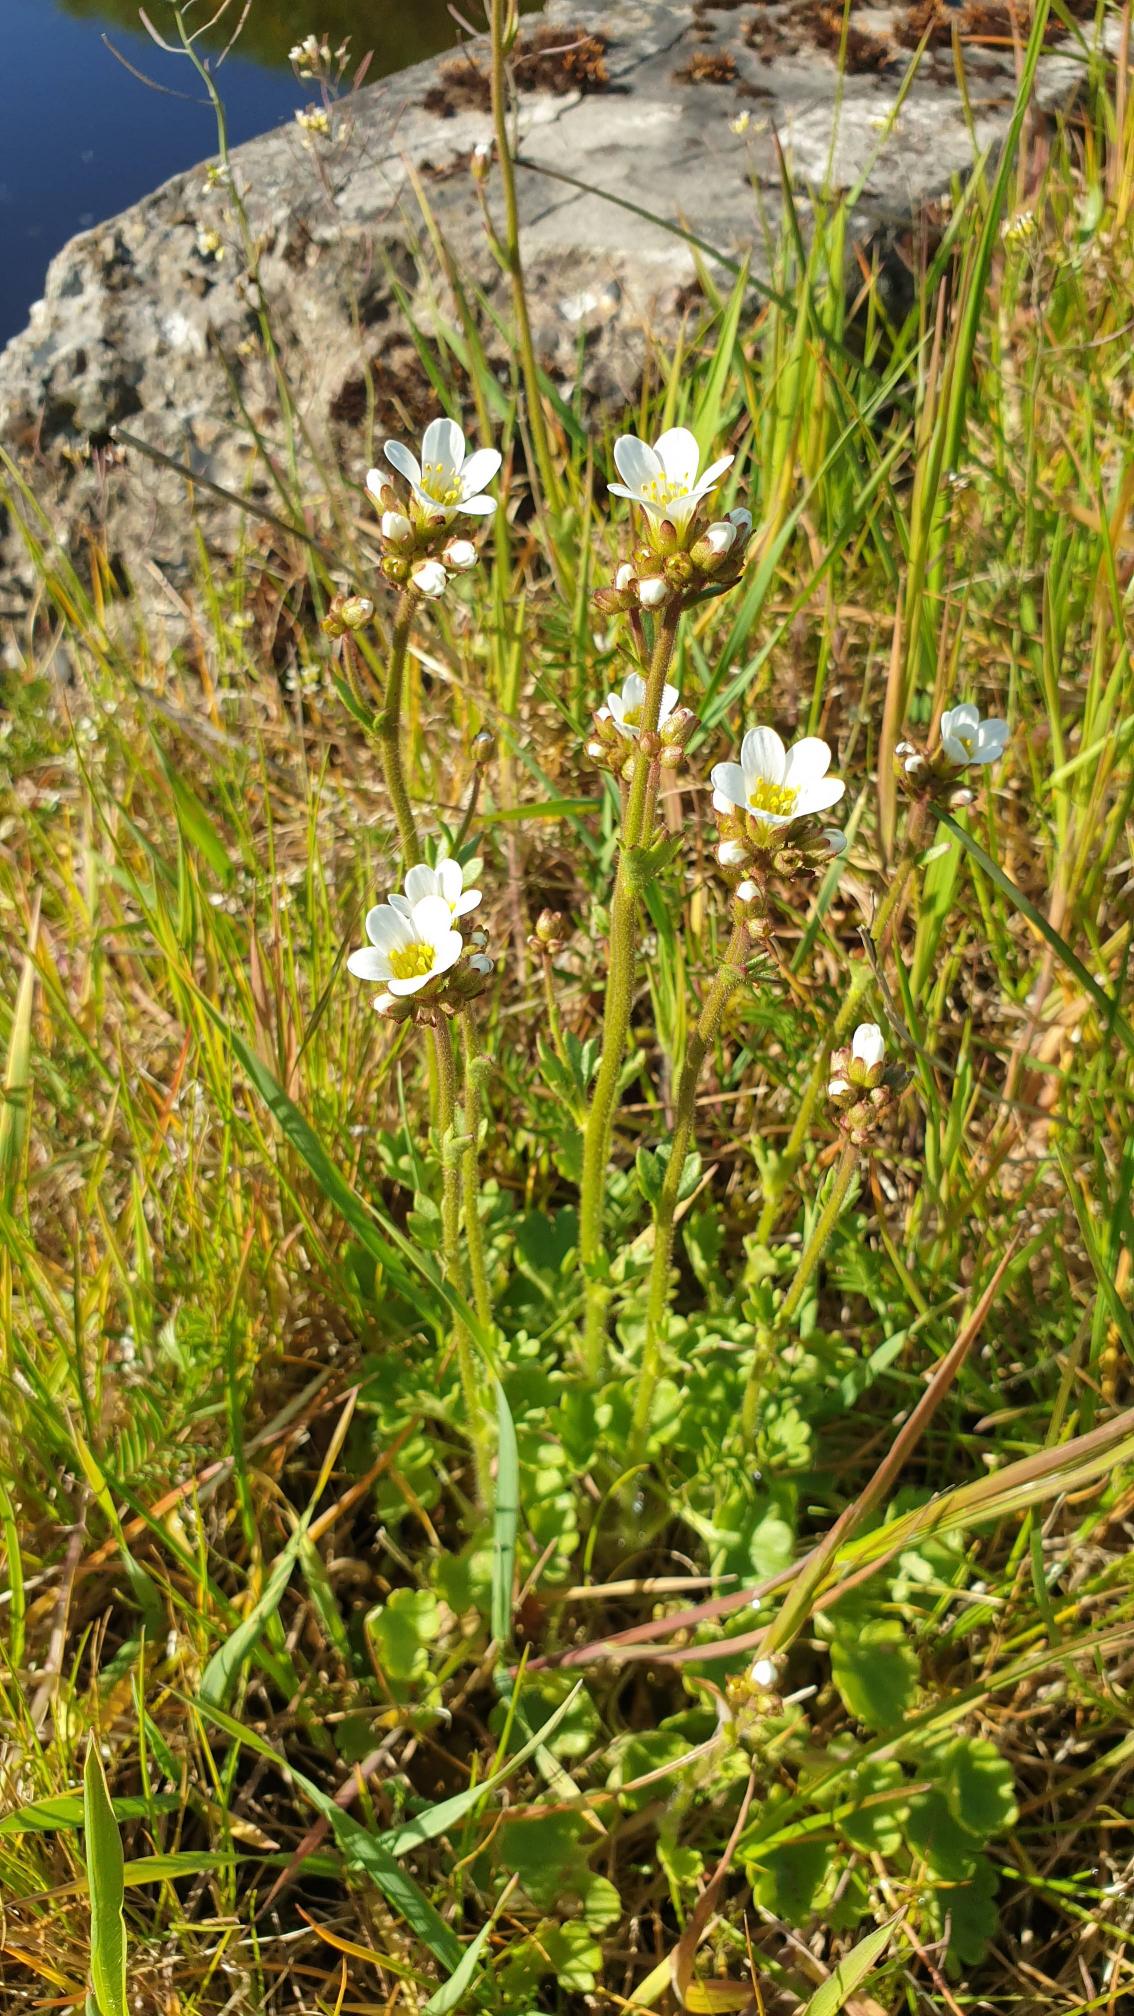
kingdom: Plantae
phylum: Tracheophyta
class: Magnoliopsida
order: Saxifragales
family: Saxifragaceae
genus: Saxifraga
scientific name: Saxifraga granulata
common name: Kornet stenbræk
